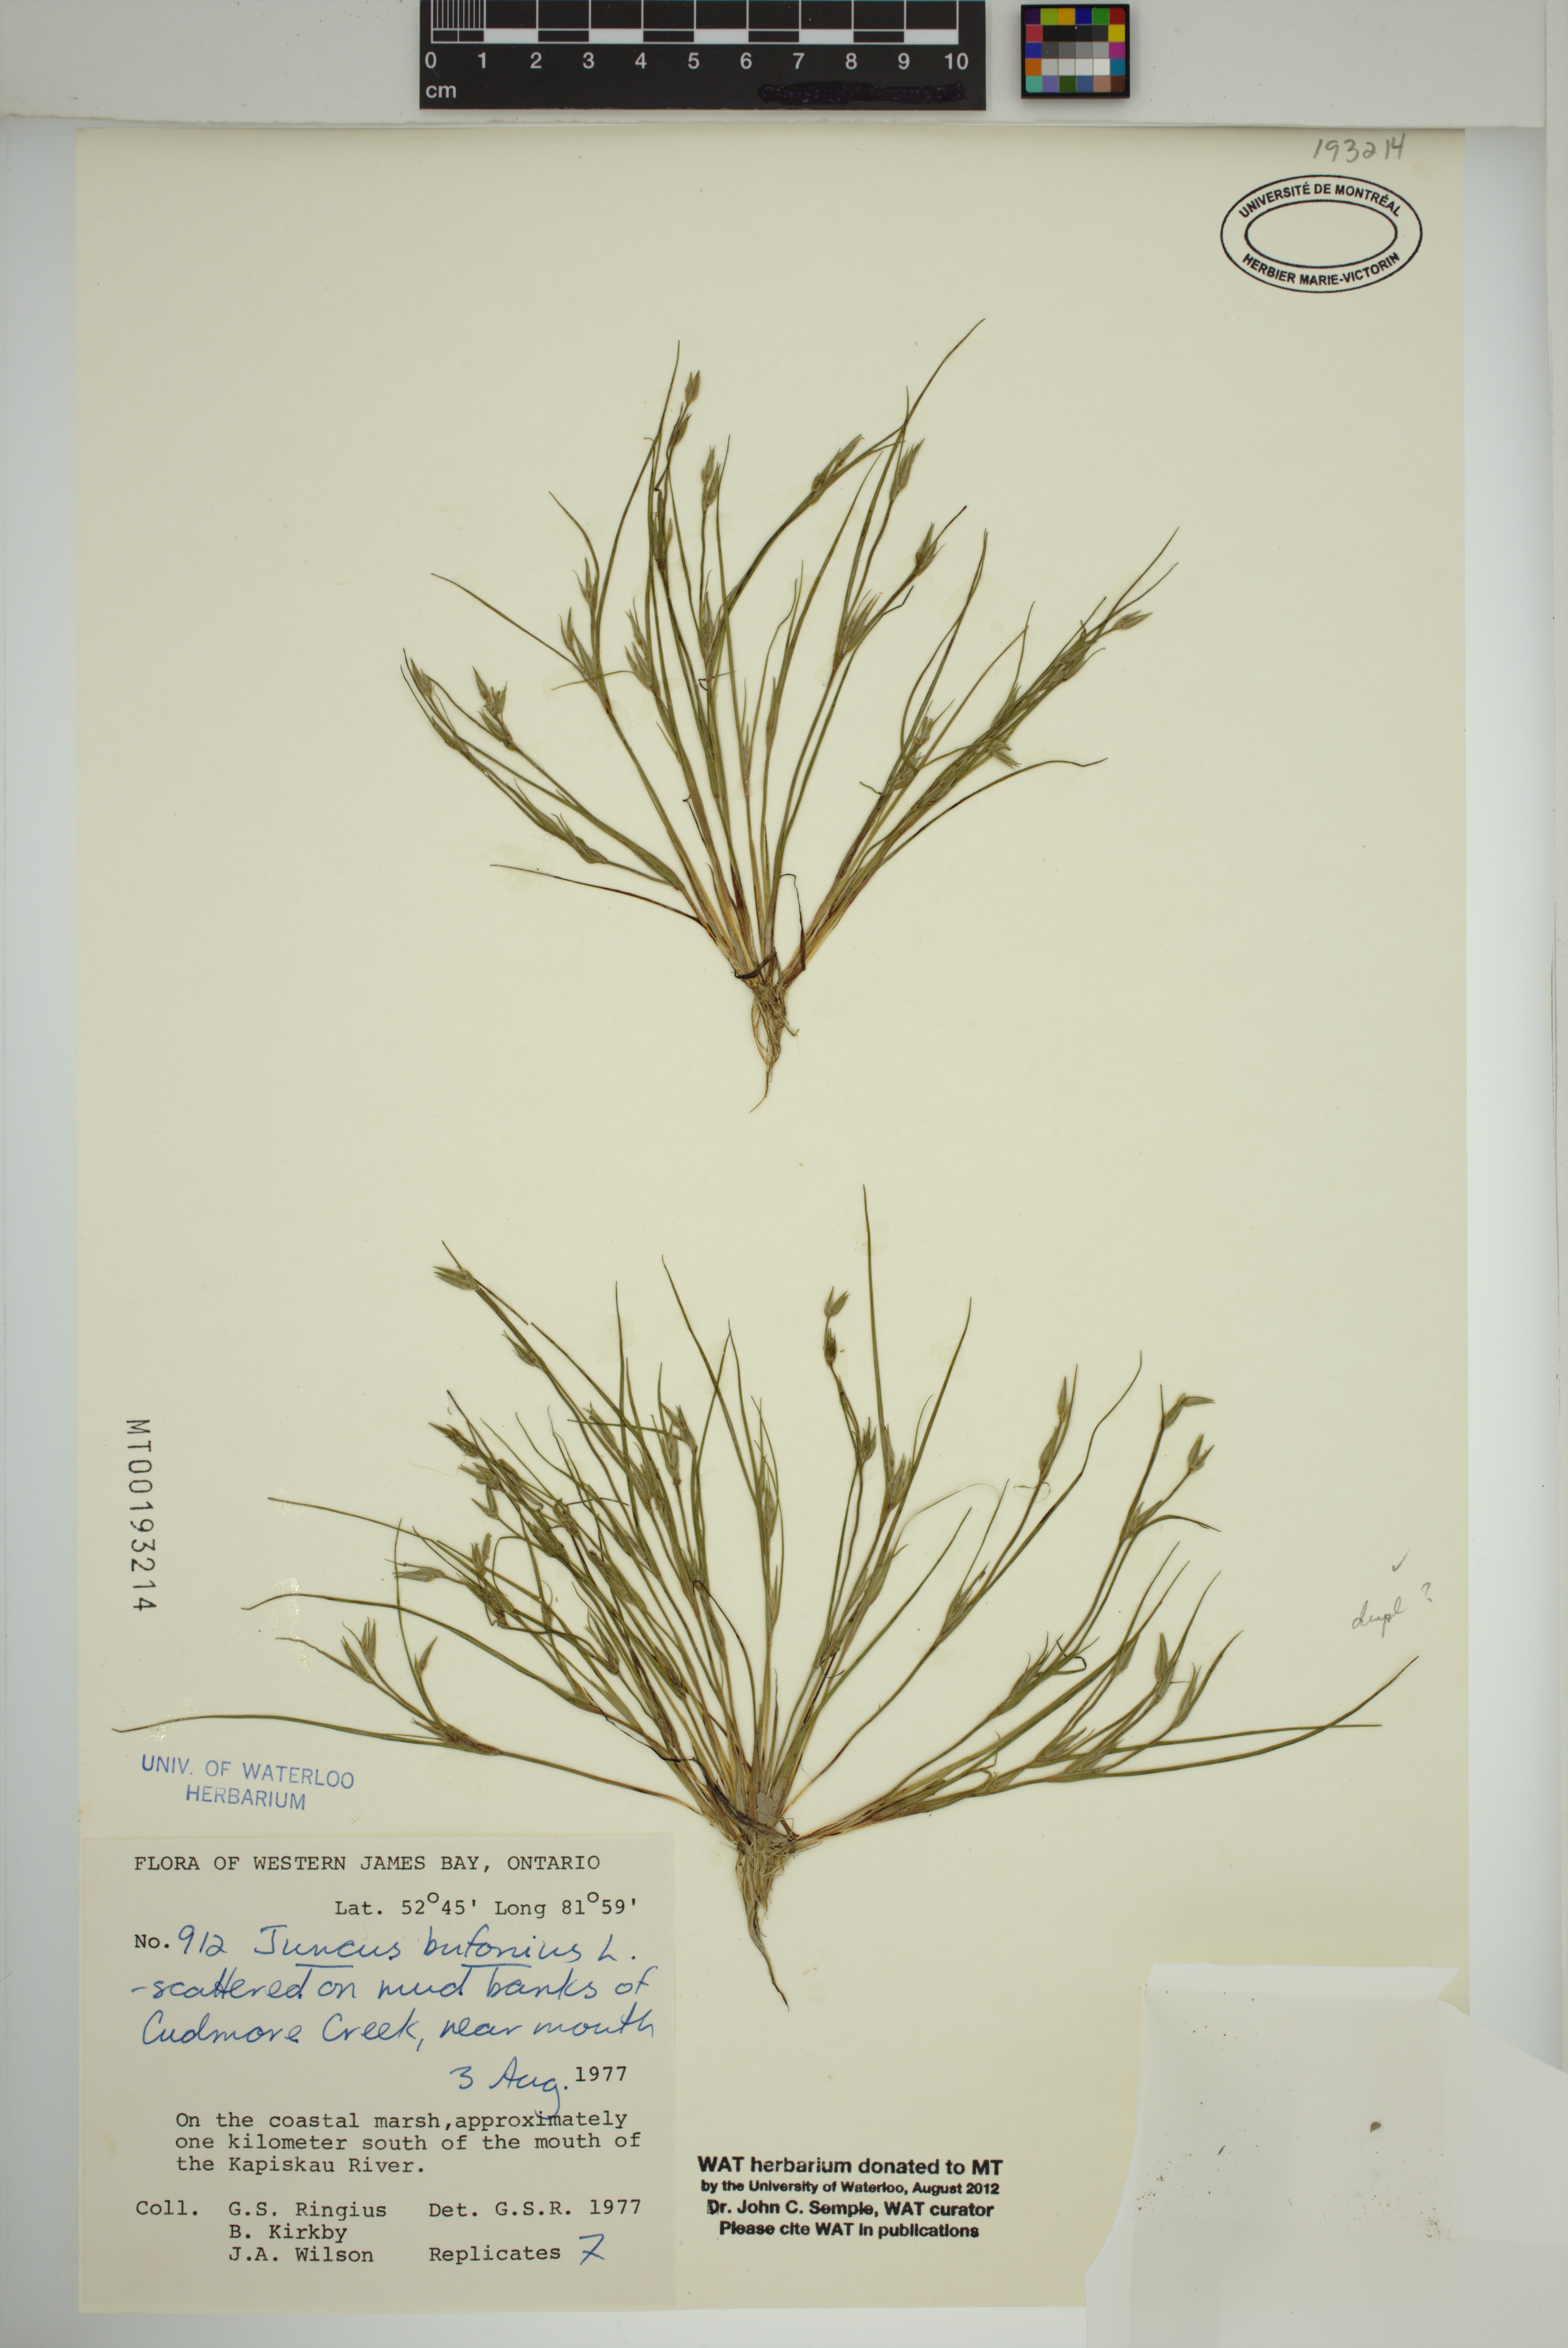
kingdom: Plantae
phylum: Tracheophyta
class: Liliopsida
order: Poales
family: Juncaceae
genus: Juncus
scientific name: Juncus bufonius
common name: Toad rush
